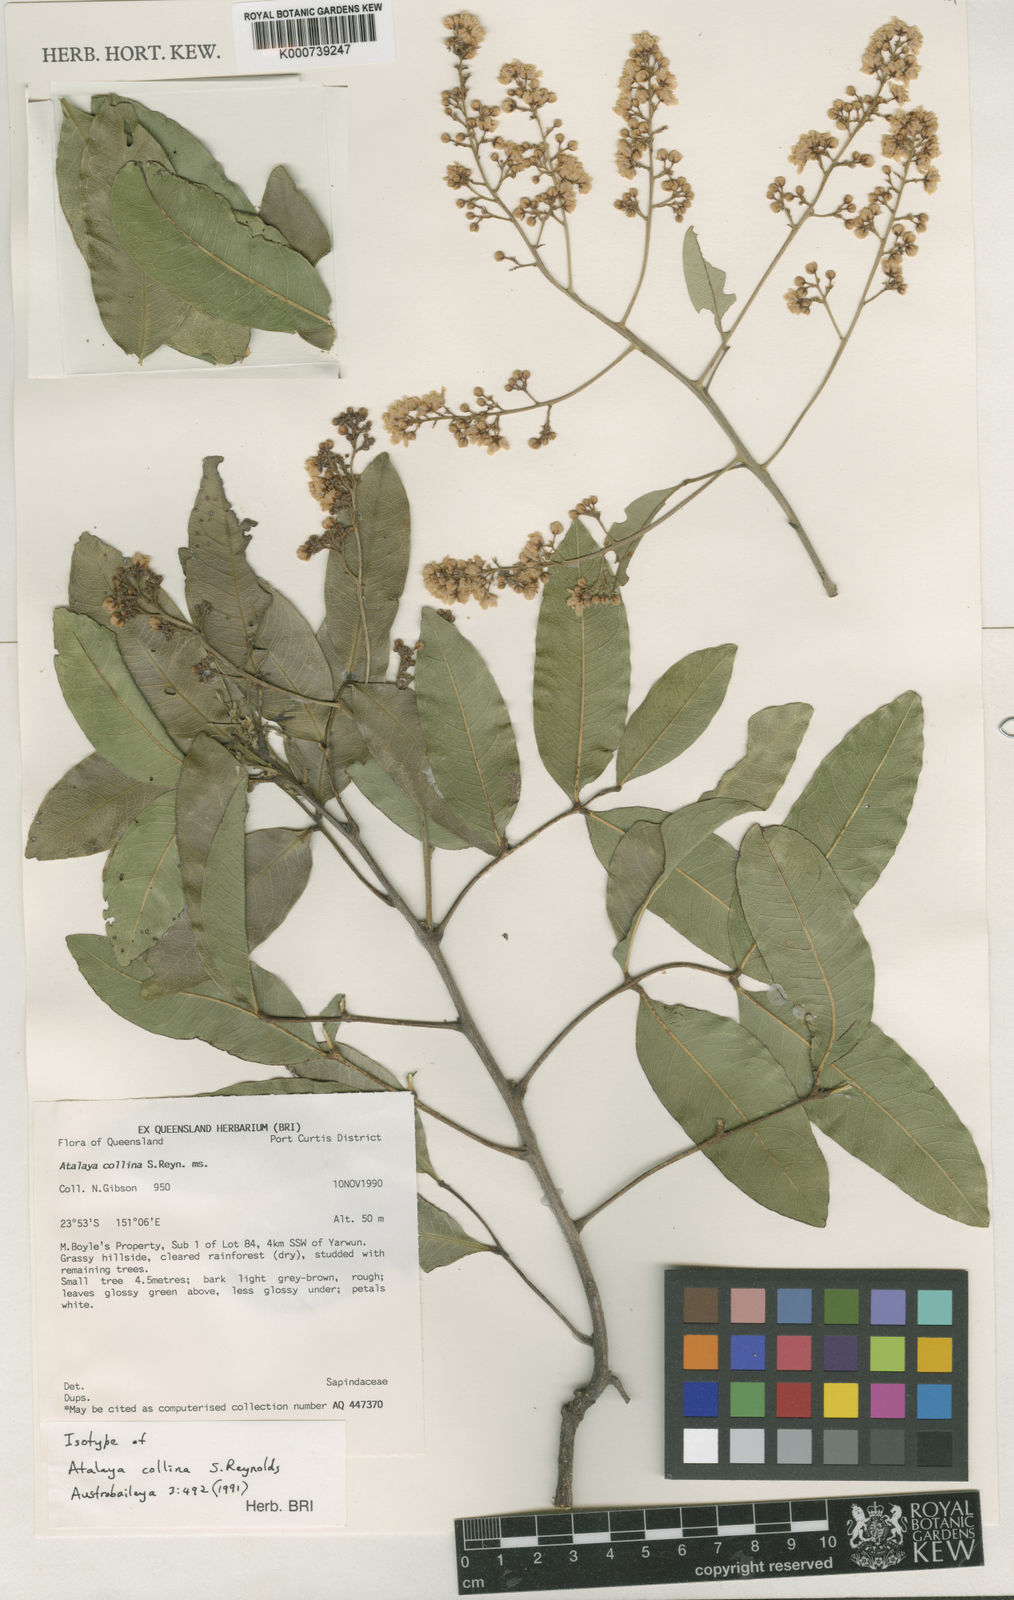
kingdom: Plantae
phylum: Tracheophyta
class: Magnoliopsida
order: Sapindales
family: Sapindaceae
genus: Atalaya
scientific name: Atalaya collina
